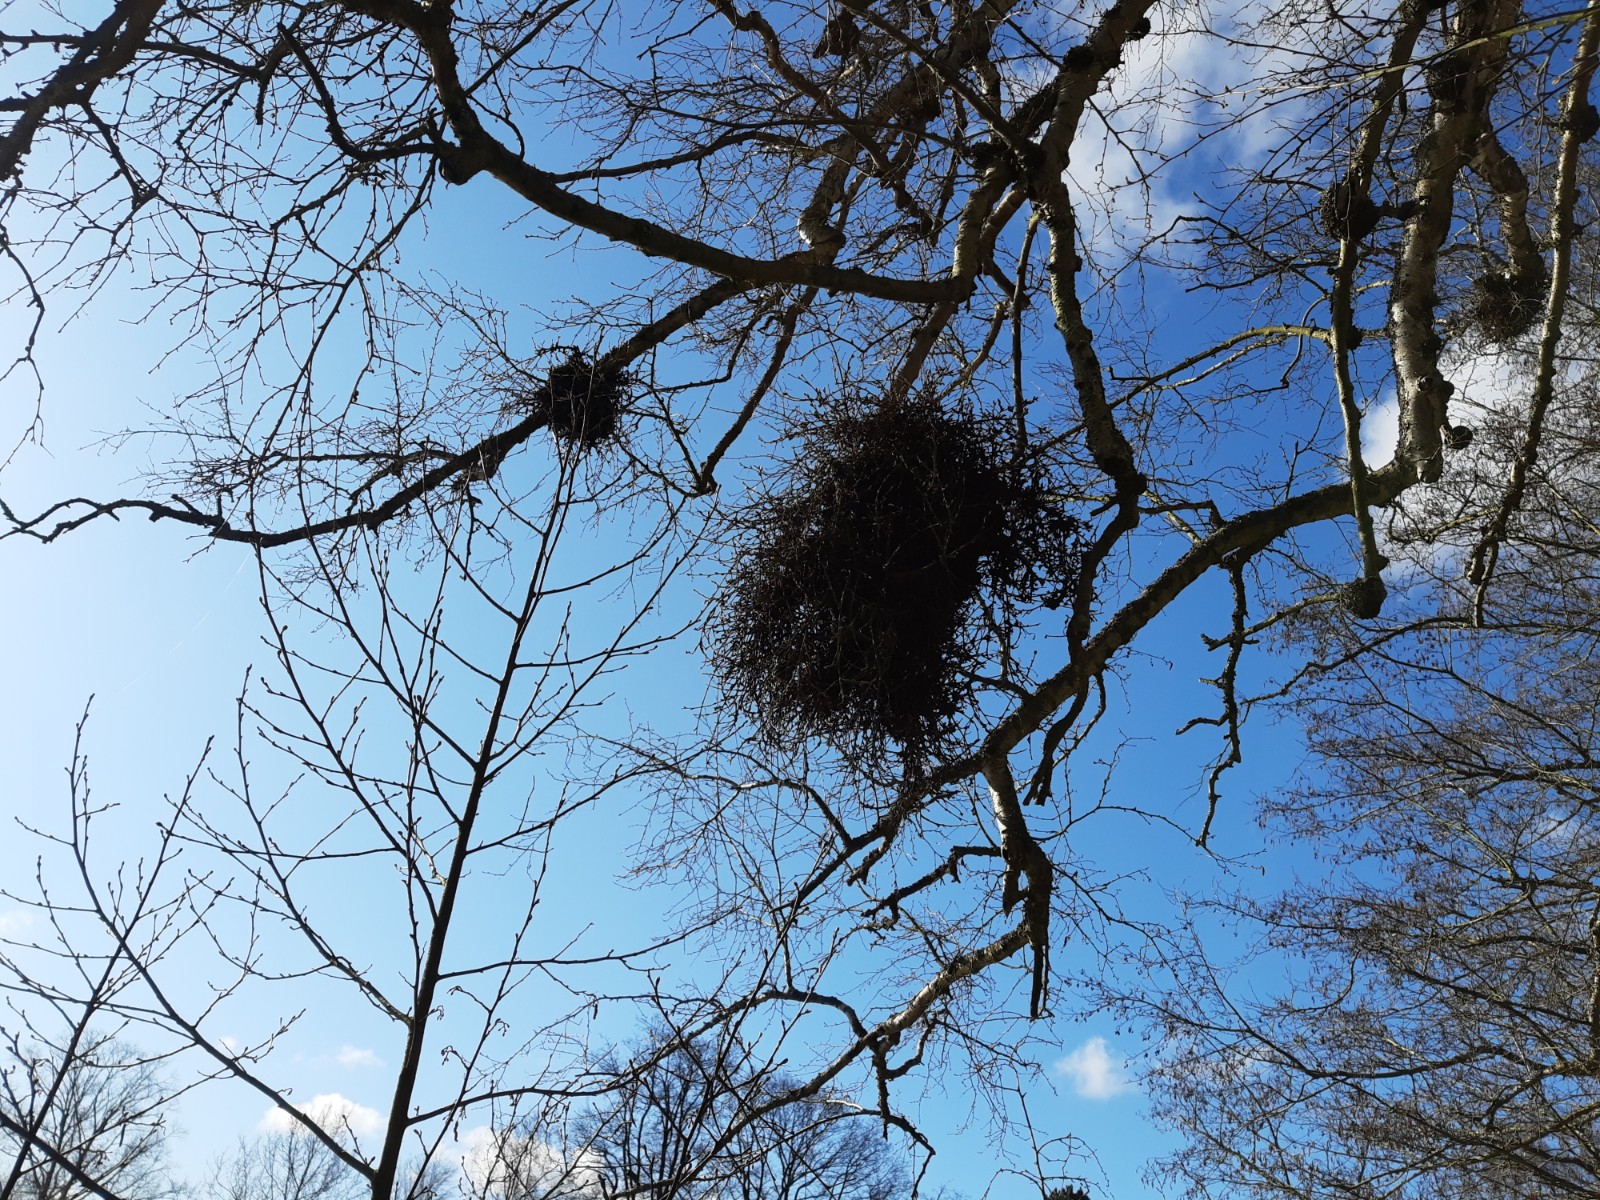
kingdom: Fungi
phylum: Ascomycota
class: Taphrinomycetes
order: Taphrinales
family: Taphrinaceae
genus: Taphrina
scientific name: Taphrina betulina
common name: hekse-sækdug
